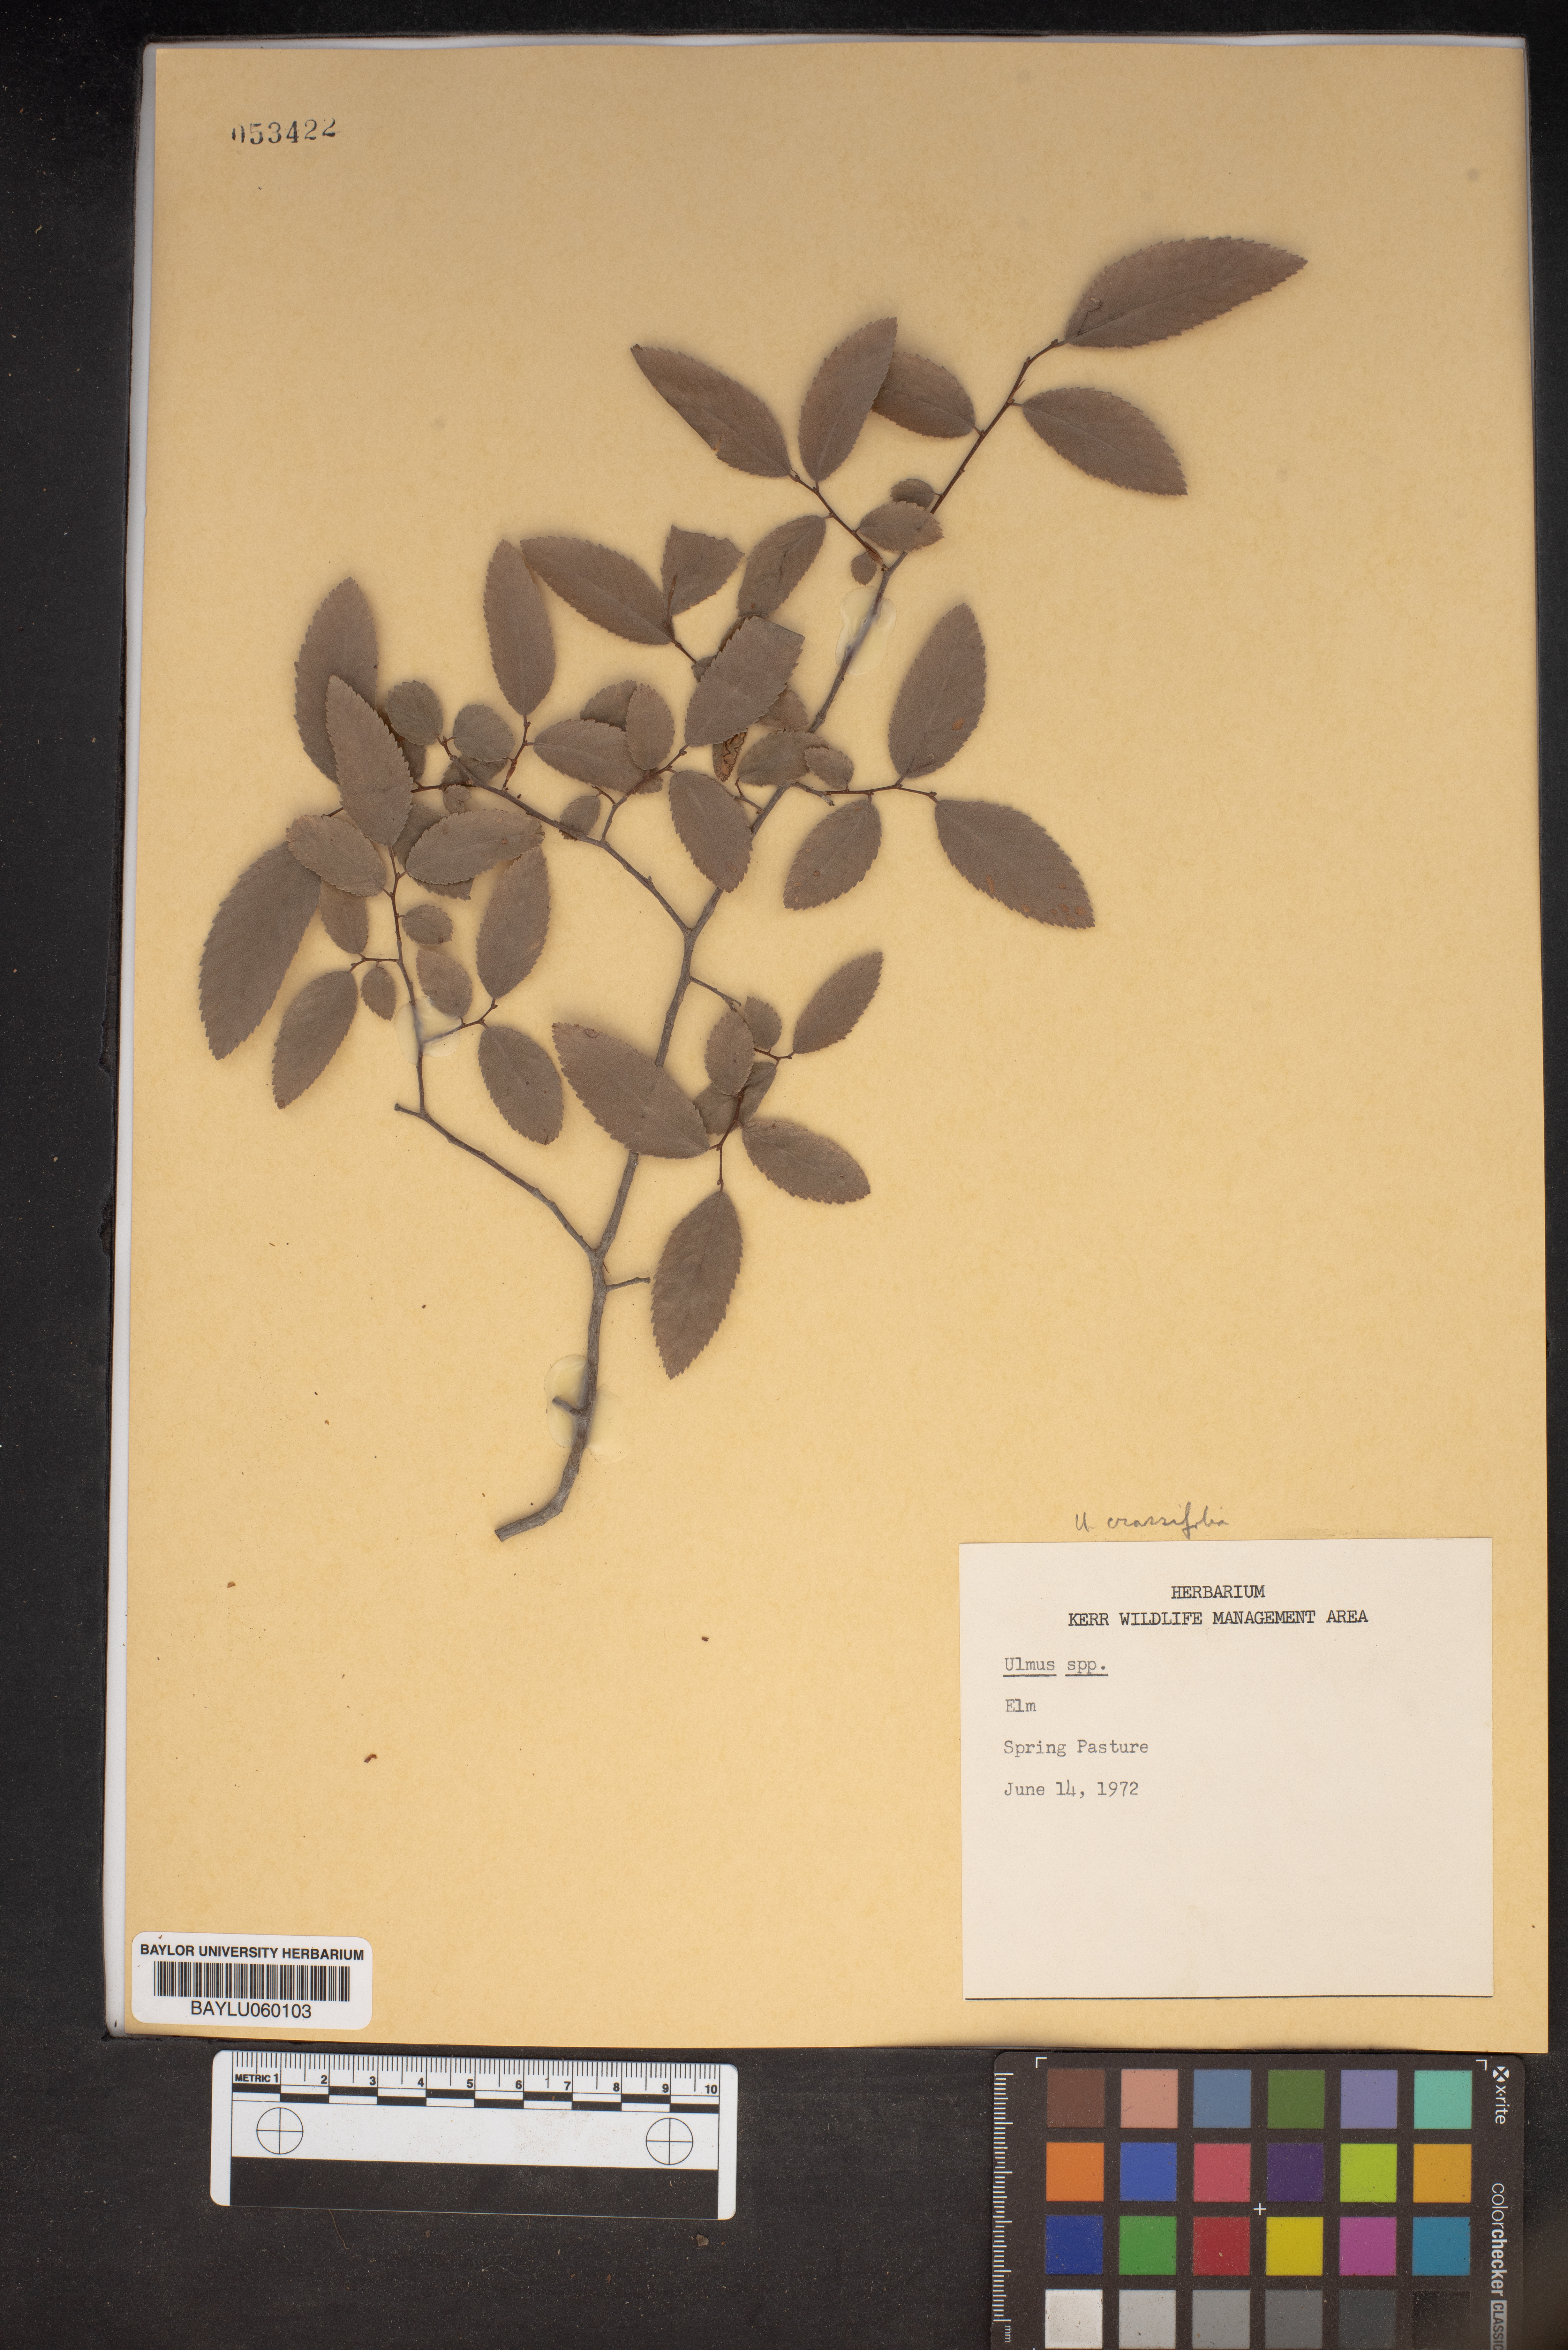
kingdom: Plantae
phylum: Tracheophyta
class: Magnoliopsida
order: Rosales
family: Ulmaceae
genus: Ulmus
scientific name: Ulmus crassifolia
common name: Basket elm
